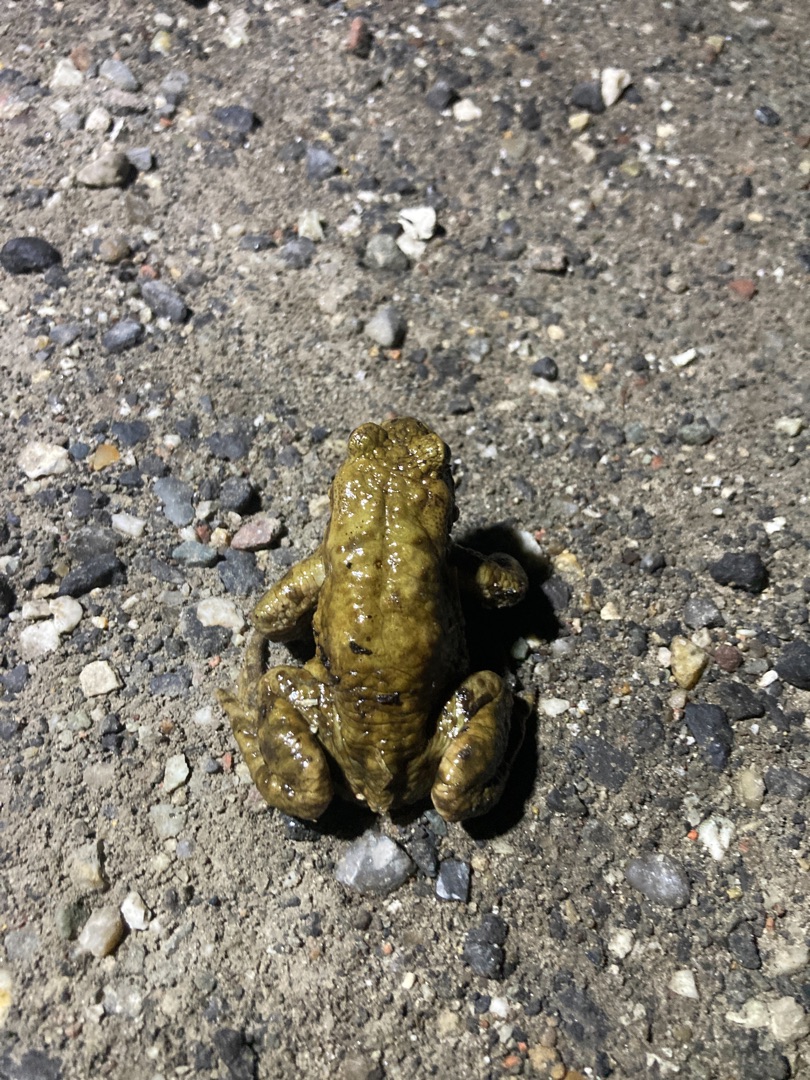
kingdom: Animalia
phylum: Chordata
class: Amphibia
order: Anura
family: Bufonidae
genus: Bufo
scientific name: Bufo bufo
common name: Skrubtudse
